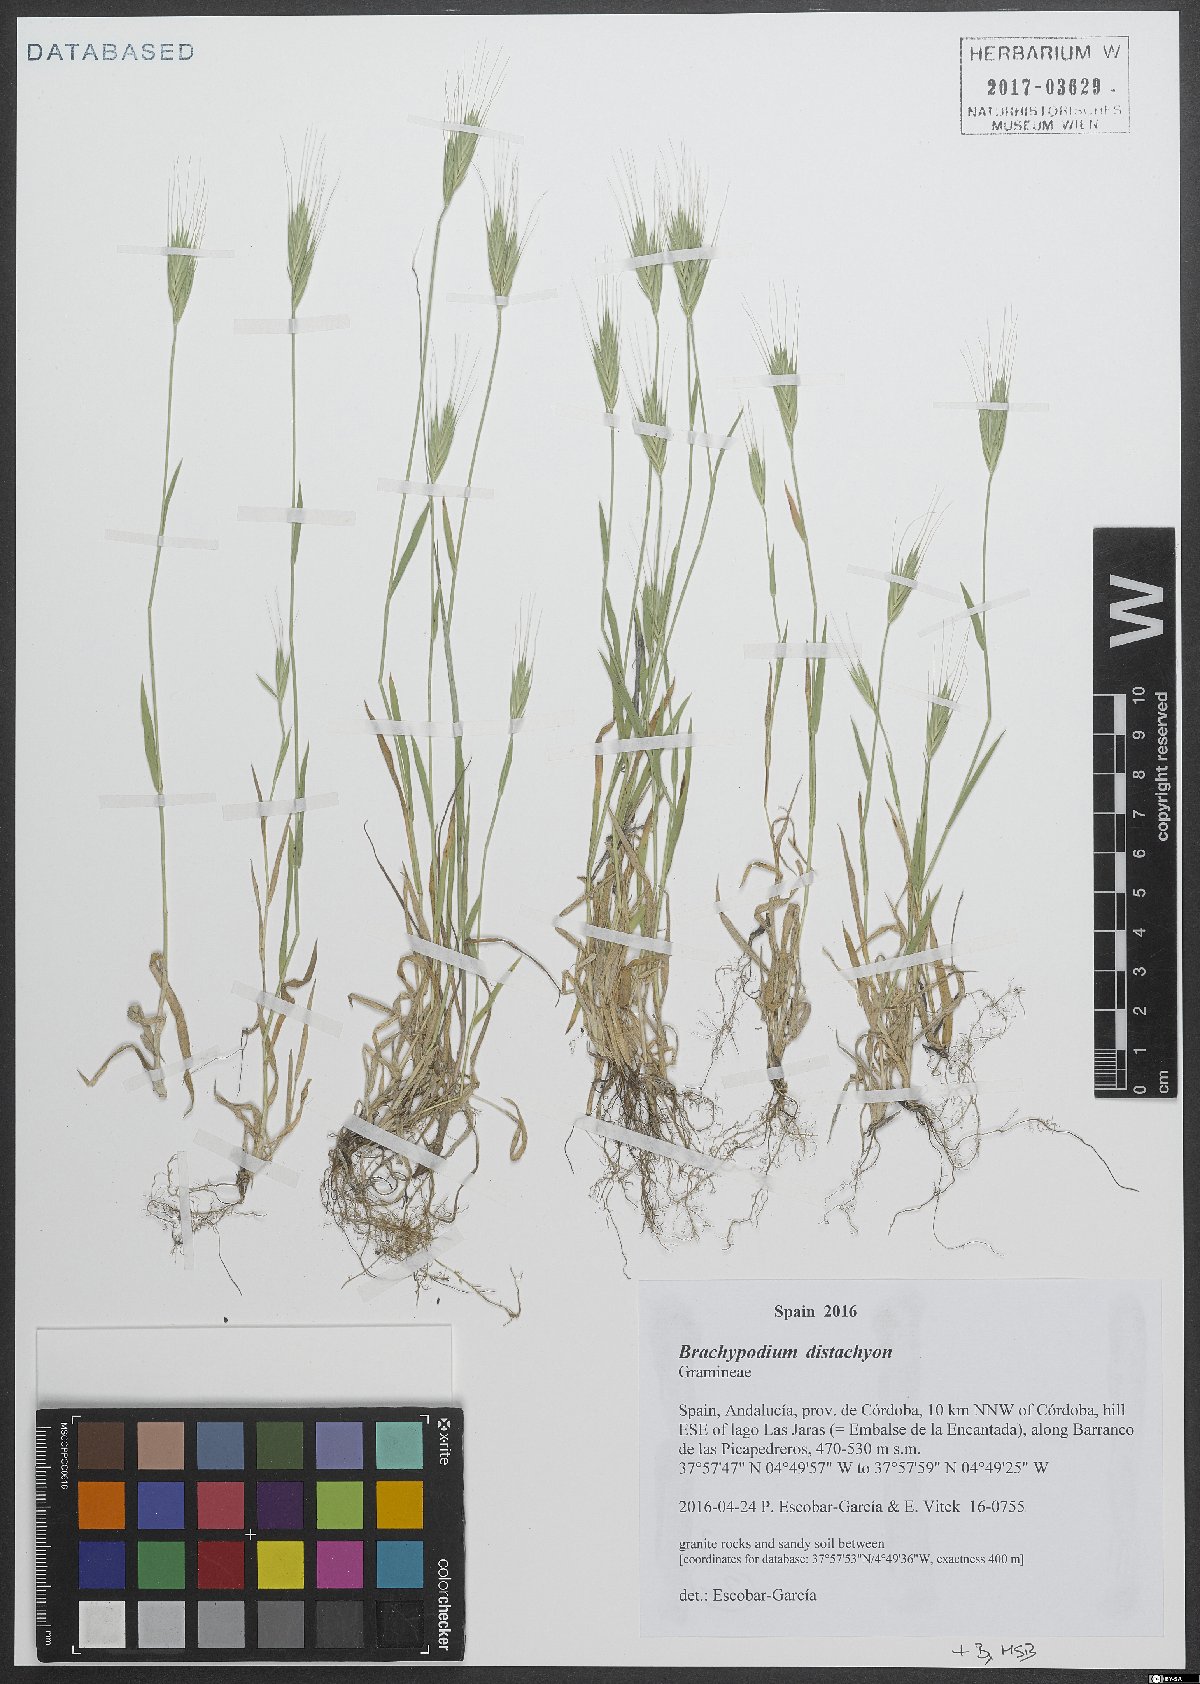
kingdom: Plantae
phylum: Tracheophyta
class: Liliopsida
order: Poales
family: Poaceae
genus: Brachypodium
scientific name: Brachypodium distachyon
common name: Stiff brome
